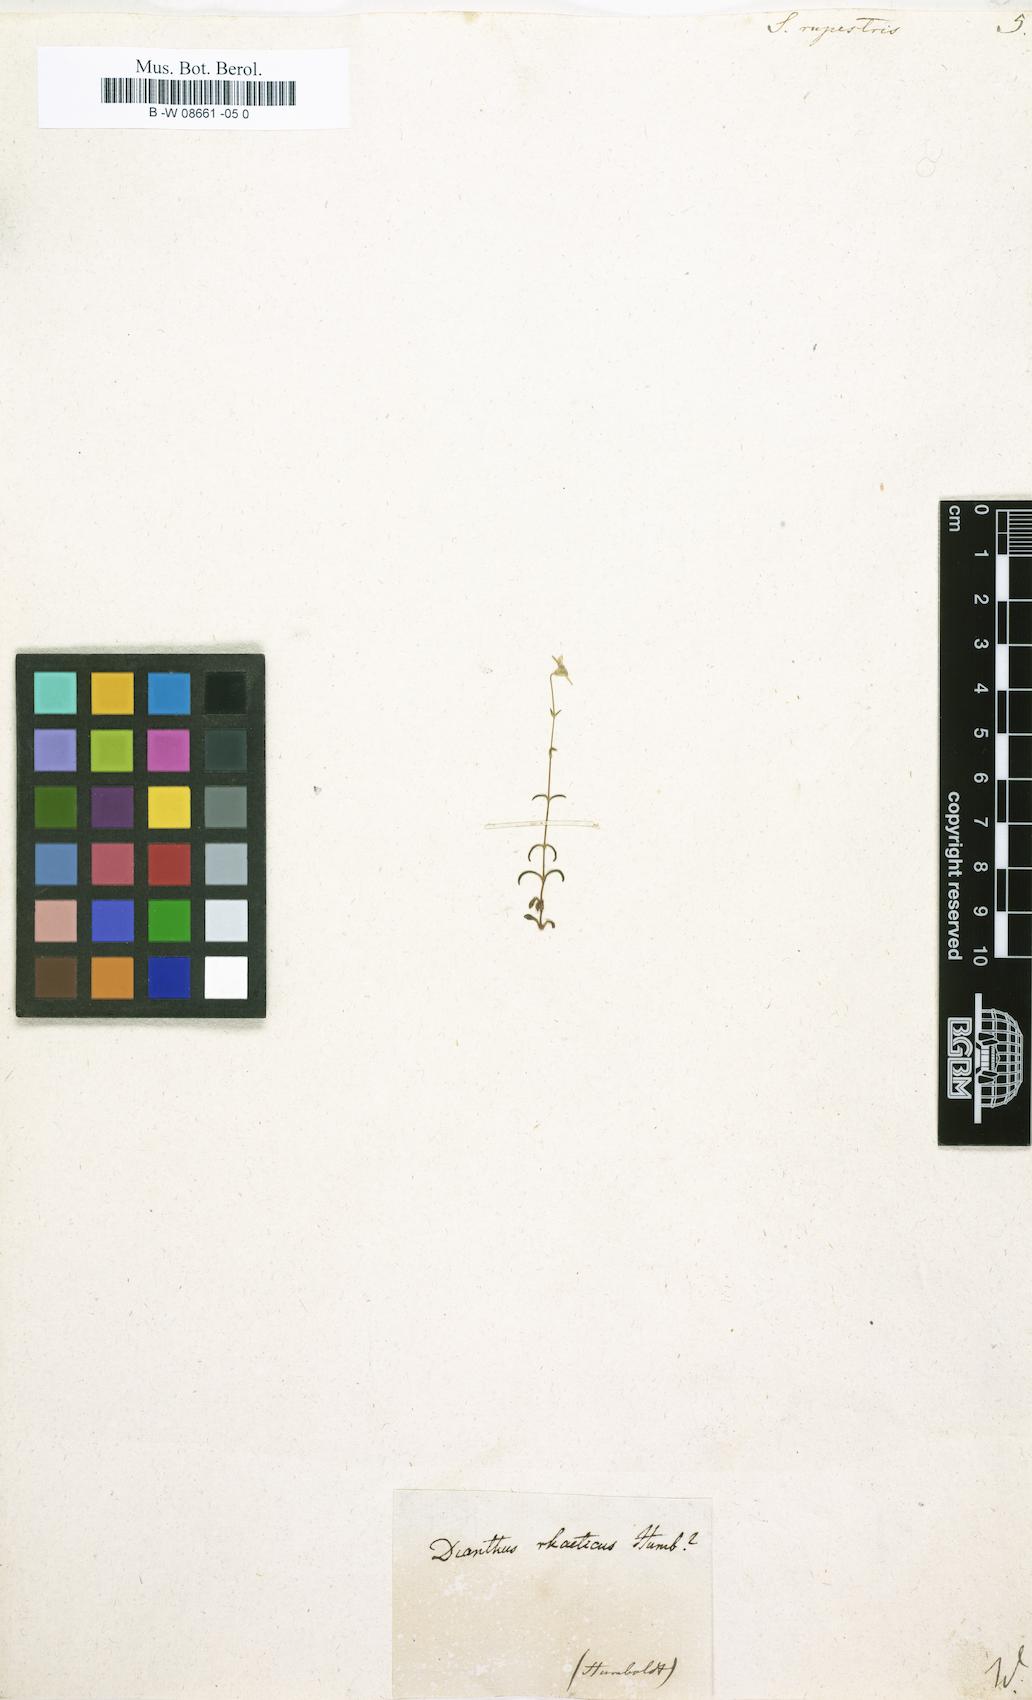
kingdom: Plantae
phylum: Tracheophyta
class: Magnoliopsida
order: Caryophyllales
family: Caryophyllaceae
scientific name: Caryophyllaceae
